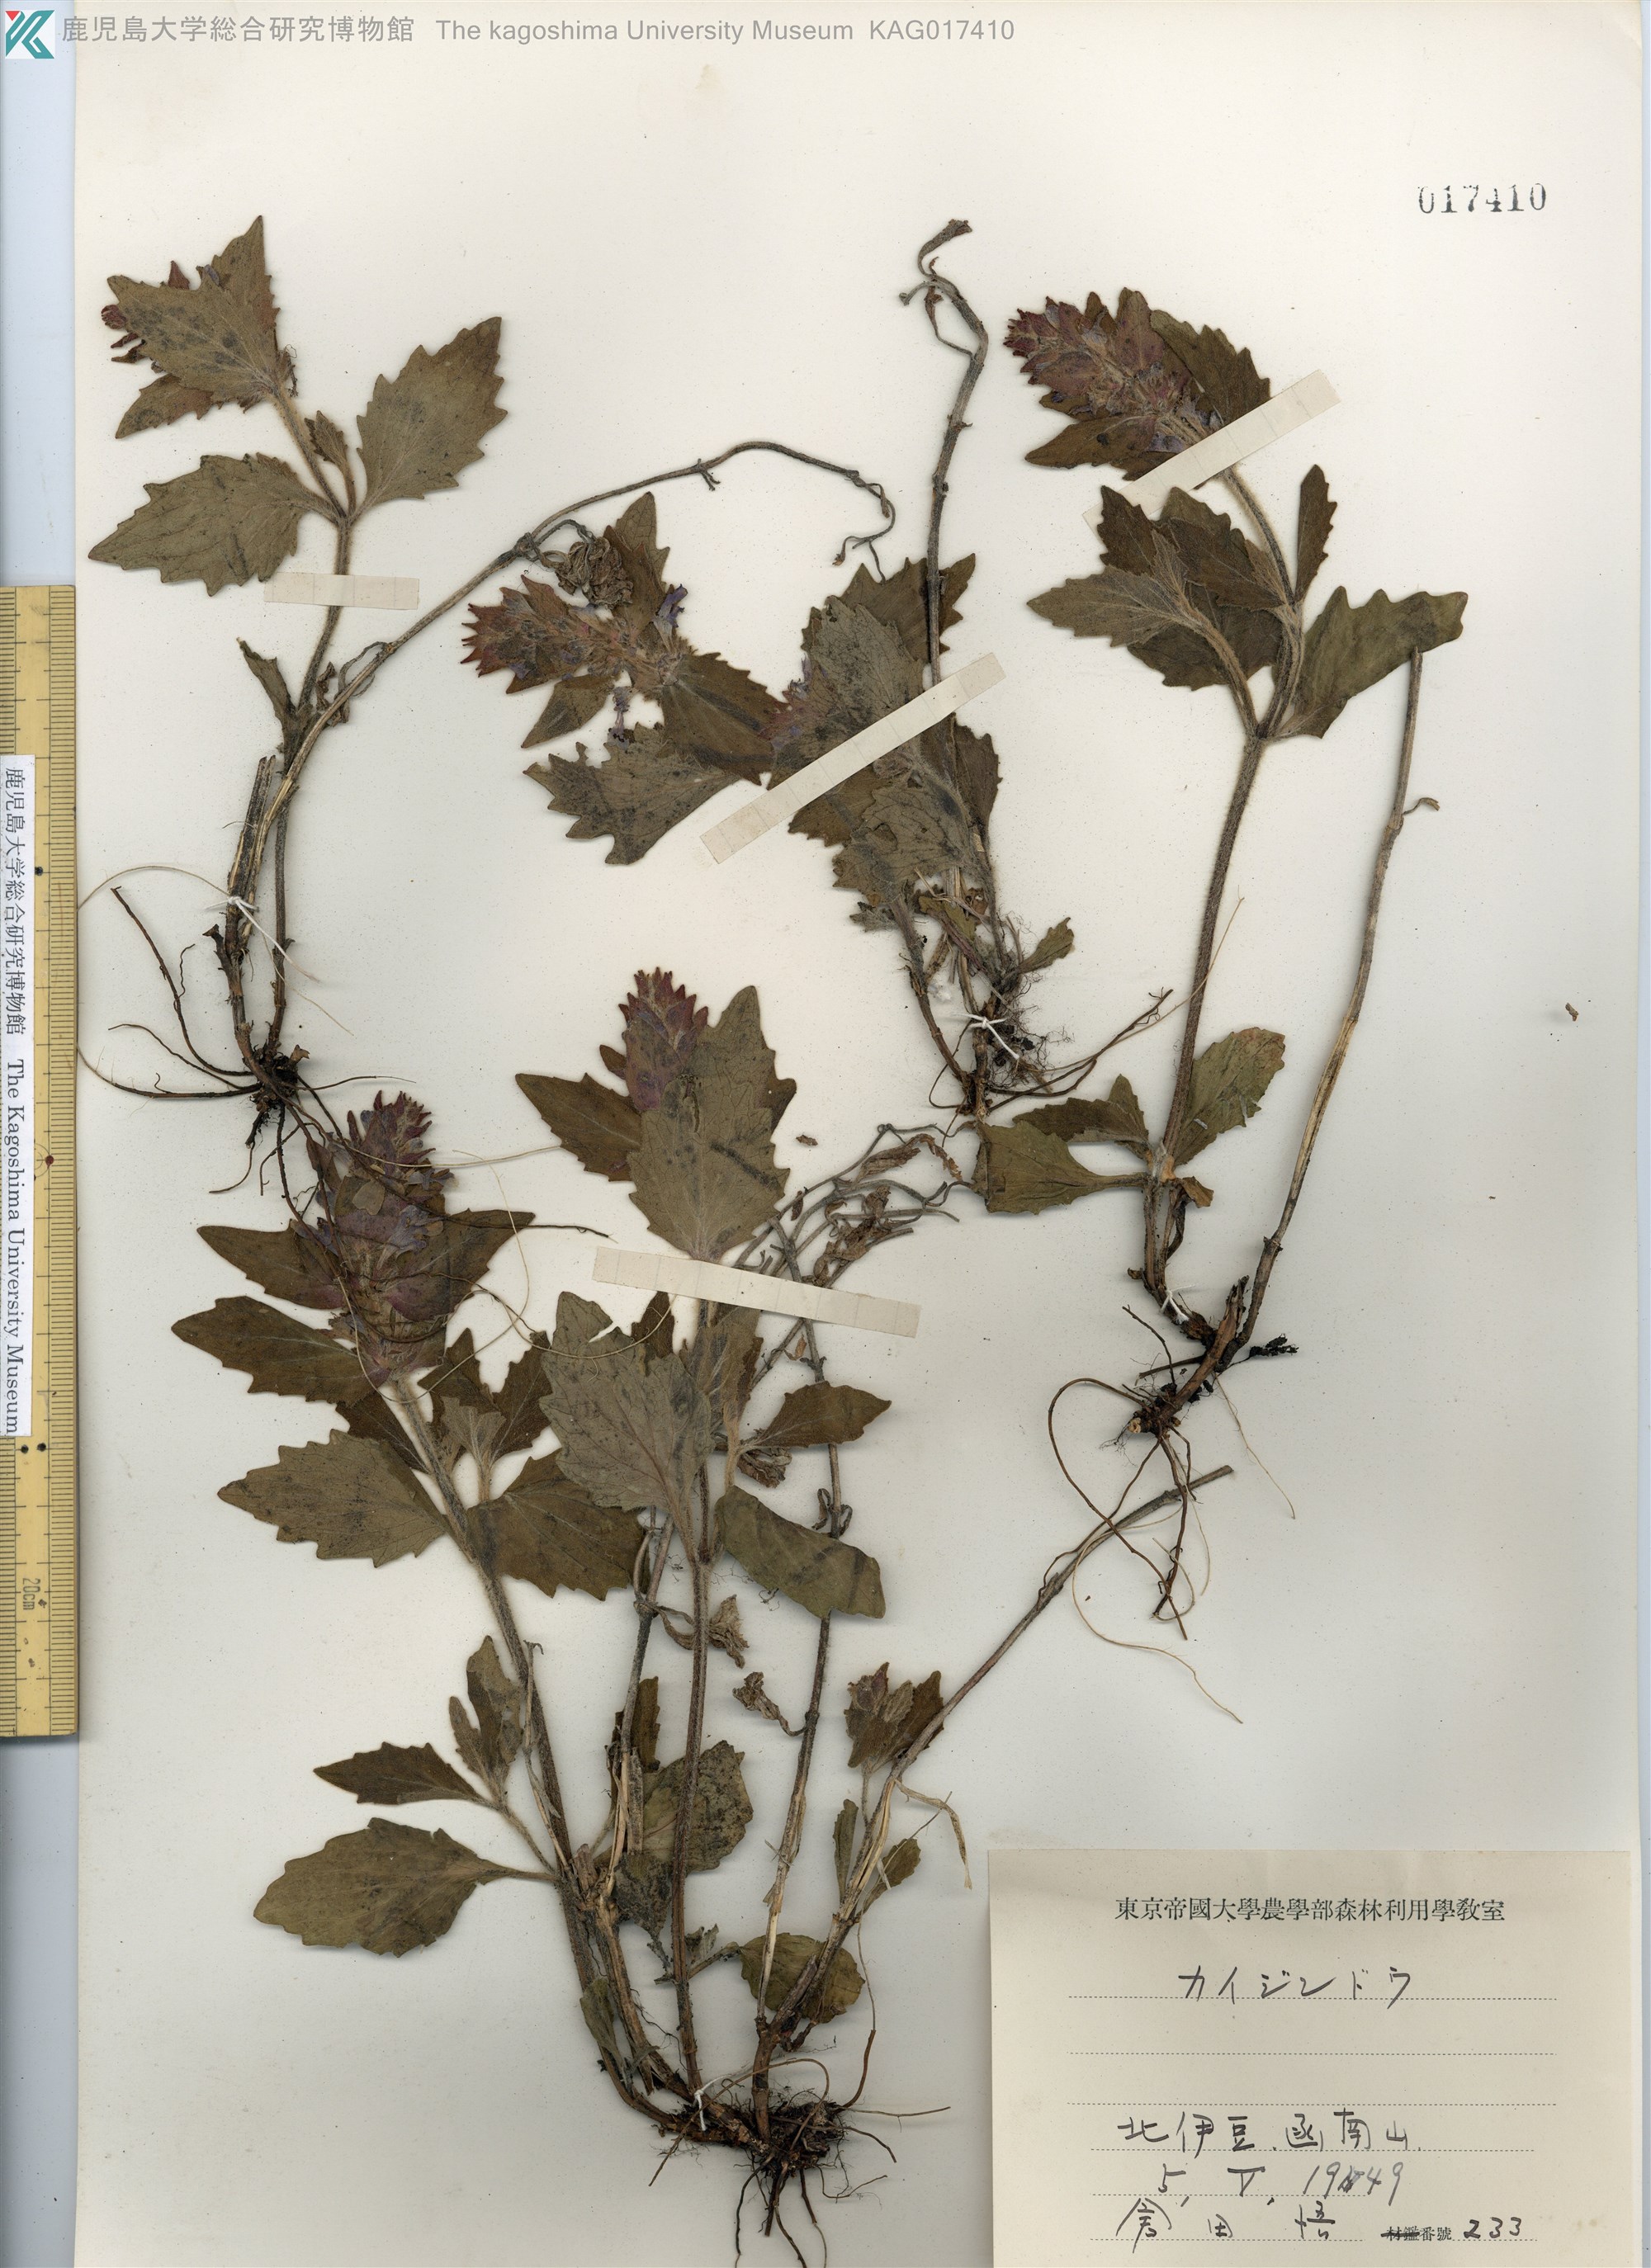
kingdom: Plantae
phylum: Tracheophyta
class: Magnoliopsida
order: Lamiales
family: Lamiaceae
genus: Ajuga
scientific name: Ajuga ciliata
